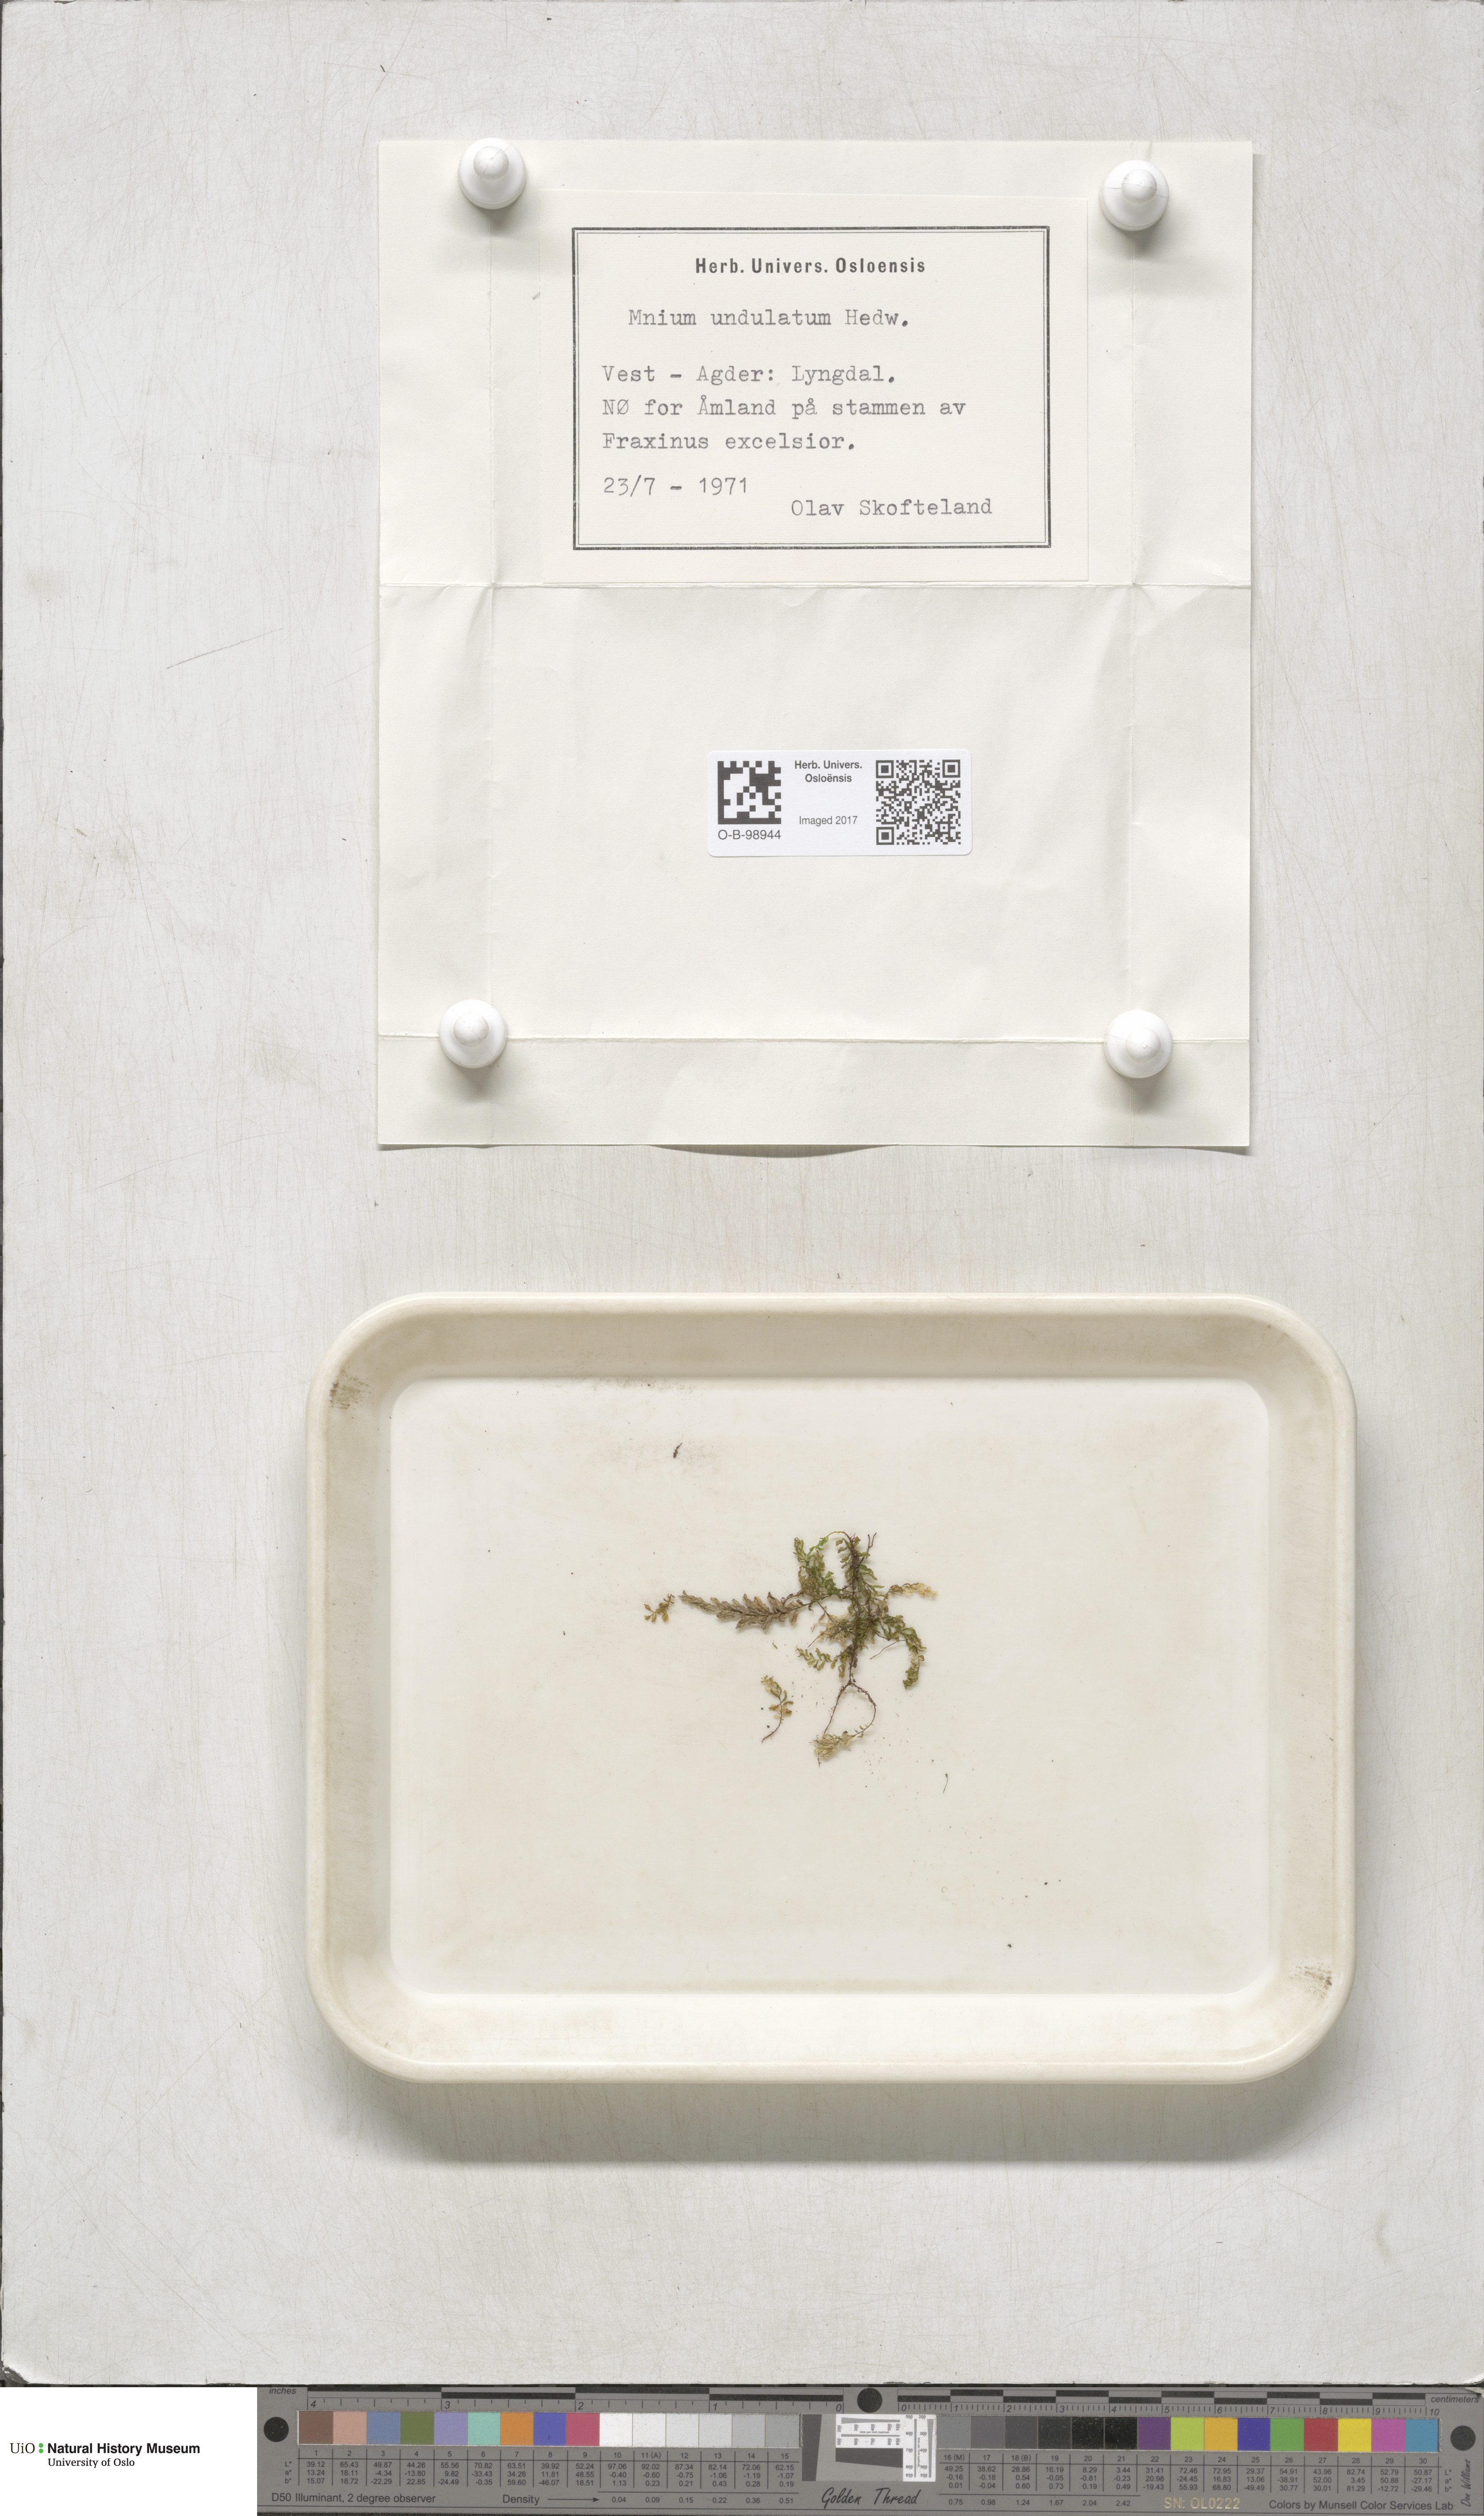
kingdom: Plantae
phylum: Bryophyta
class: Bryopsida
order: Bryales
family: Mniaceae
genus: Plagiomnium
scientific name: Plagiomnium undulatum
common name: Hart's-tongue thyme-moss
